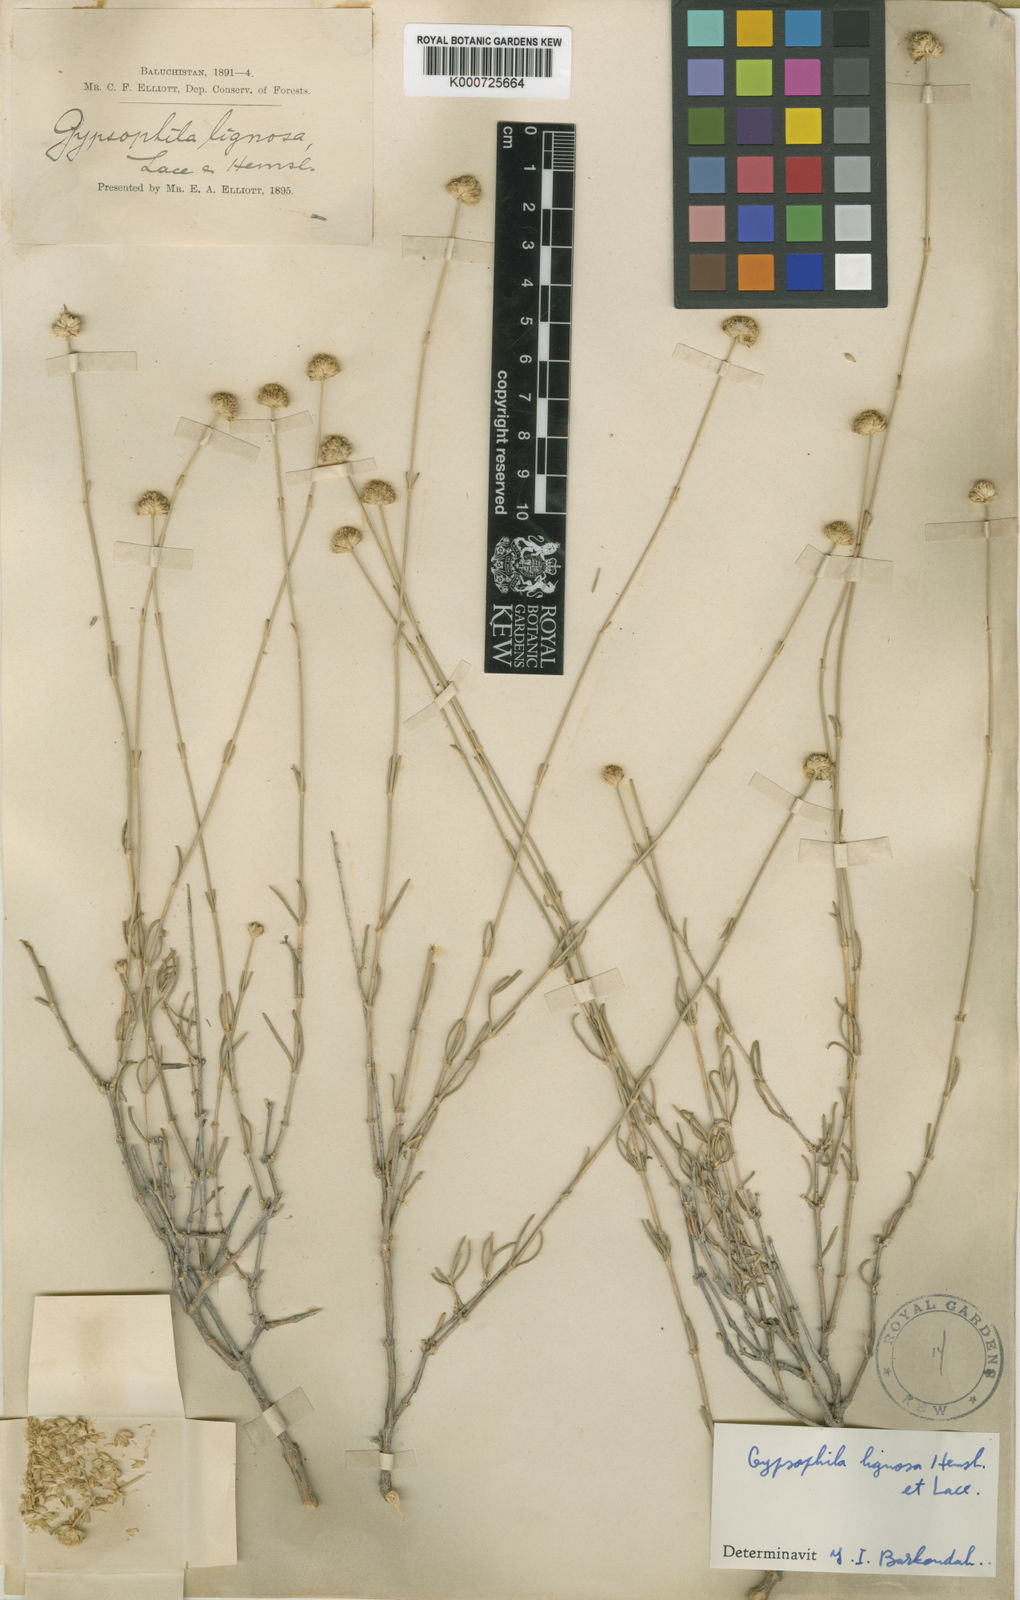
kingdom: Plantae
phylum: Tracheophyta
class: Magnoliopsida
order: Caryophyllales
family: Caryophyllaceae
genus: Gypsophila
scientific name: Gypsophila lignosa
